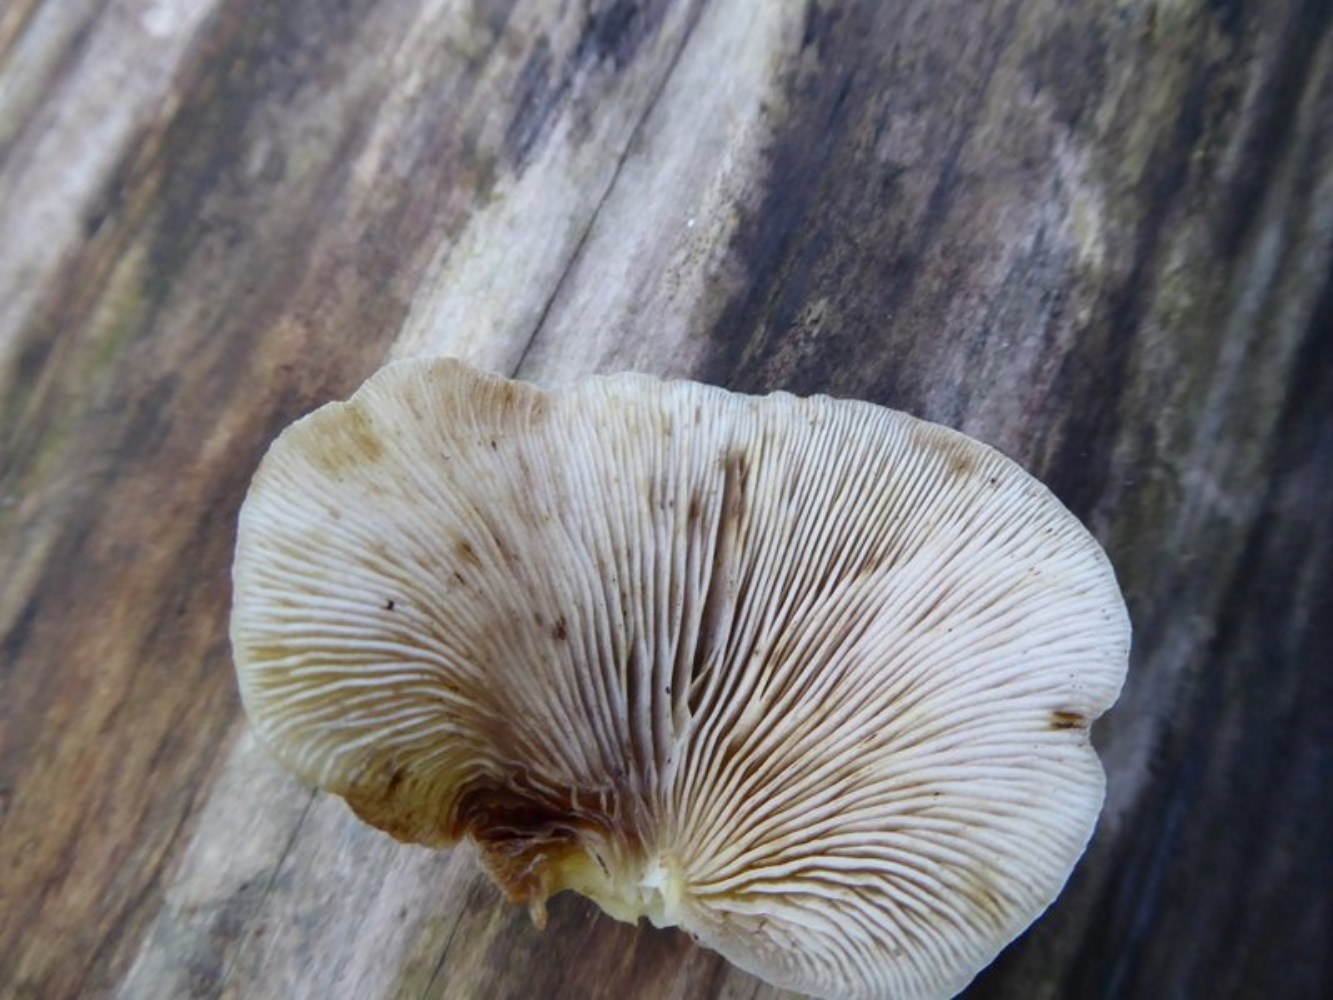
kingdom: Fungi
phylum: Basidiomycota
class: Agaricomycetes
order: Agaricales
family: Crepidotaceae
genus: Crepidotus
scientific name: Crepidotus mollis
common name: blød muslingesvamp
